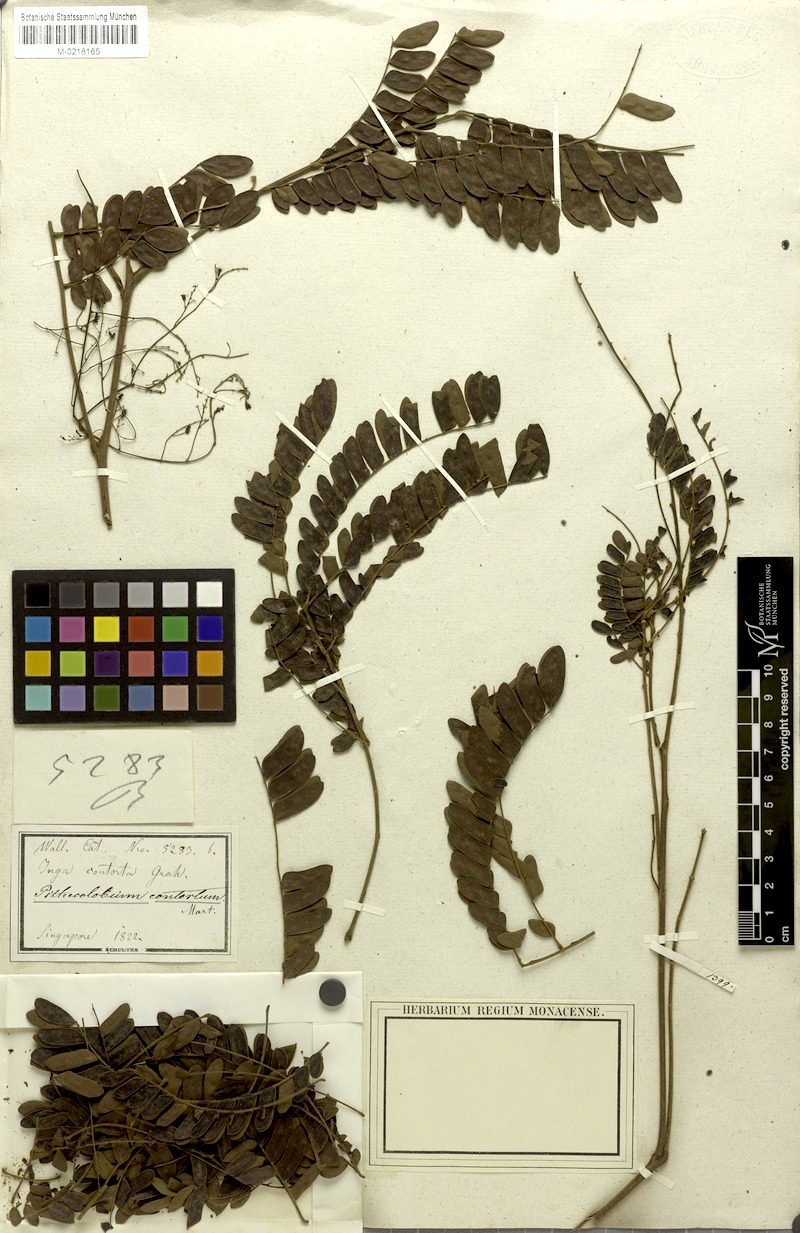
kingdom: Plantae
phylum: Tracheophyta
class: Magnoliopsida
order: Fabales
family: Fabaceae
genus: Archidendron
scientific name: Archidendron contortum
